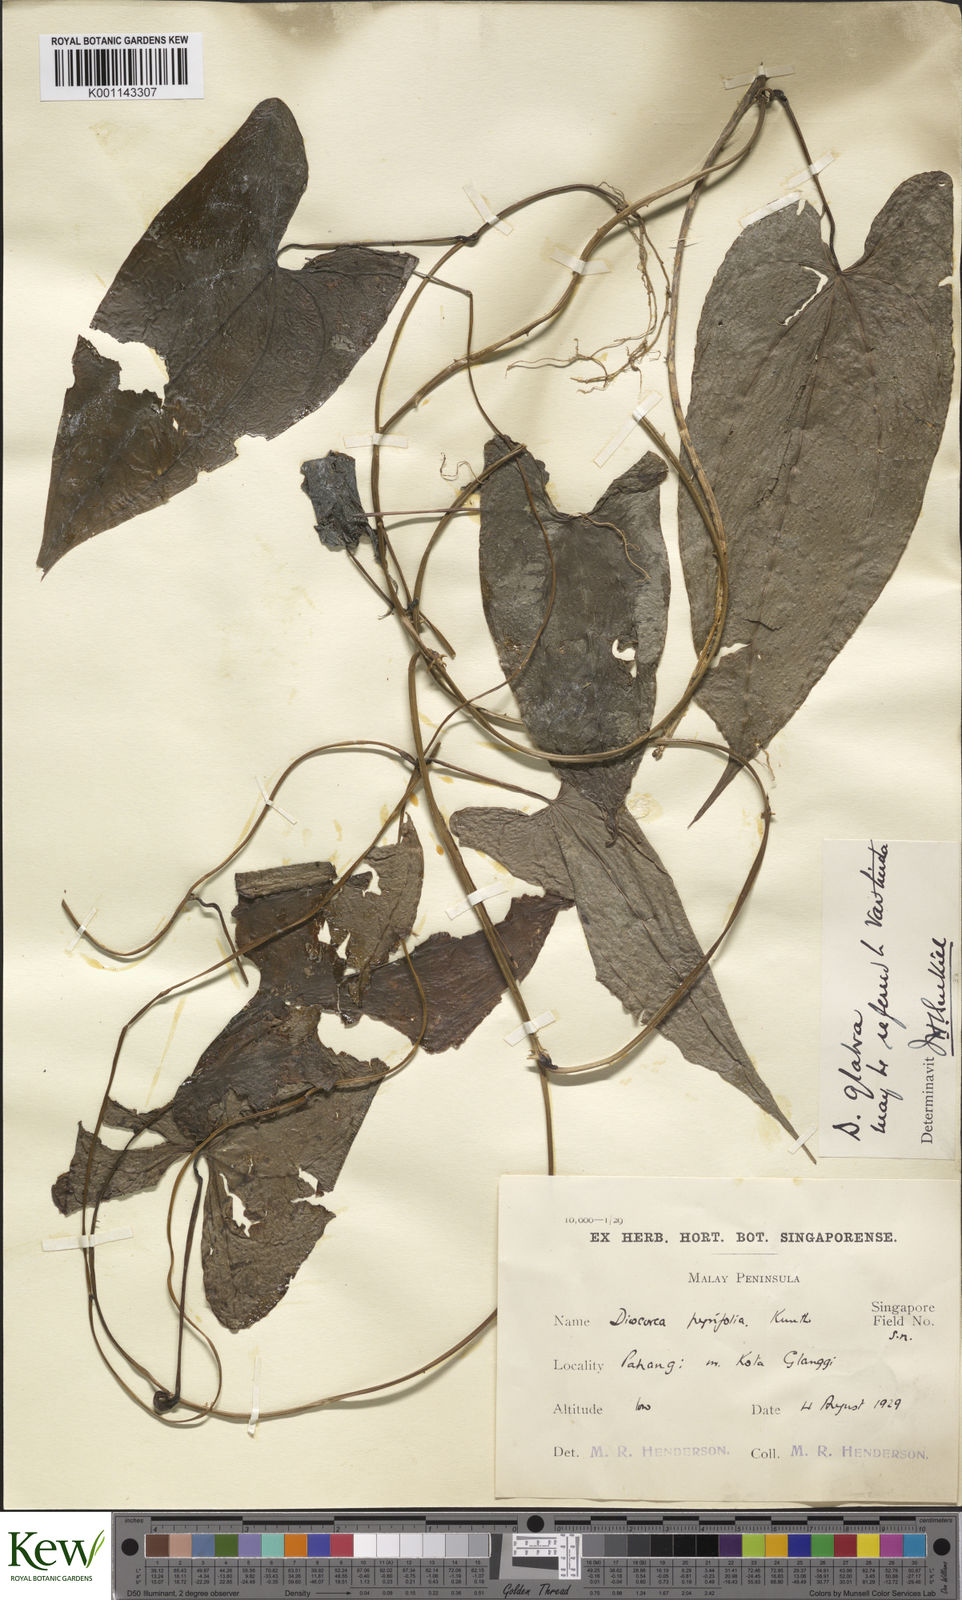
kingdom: Plantae
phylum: Tracheophyta
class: Liliopsida
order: Dioscoreales
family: Dioscoreaceae
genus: Dioscorea
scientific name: Dioscorea glabra
